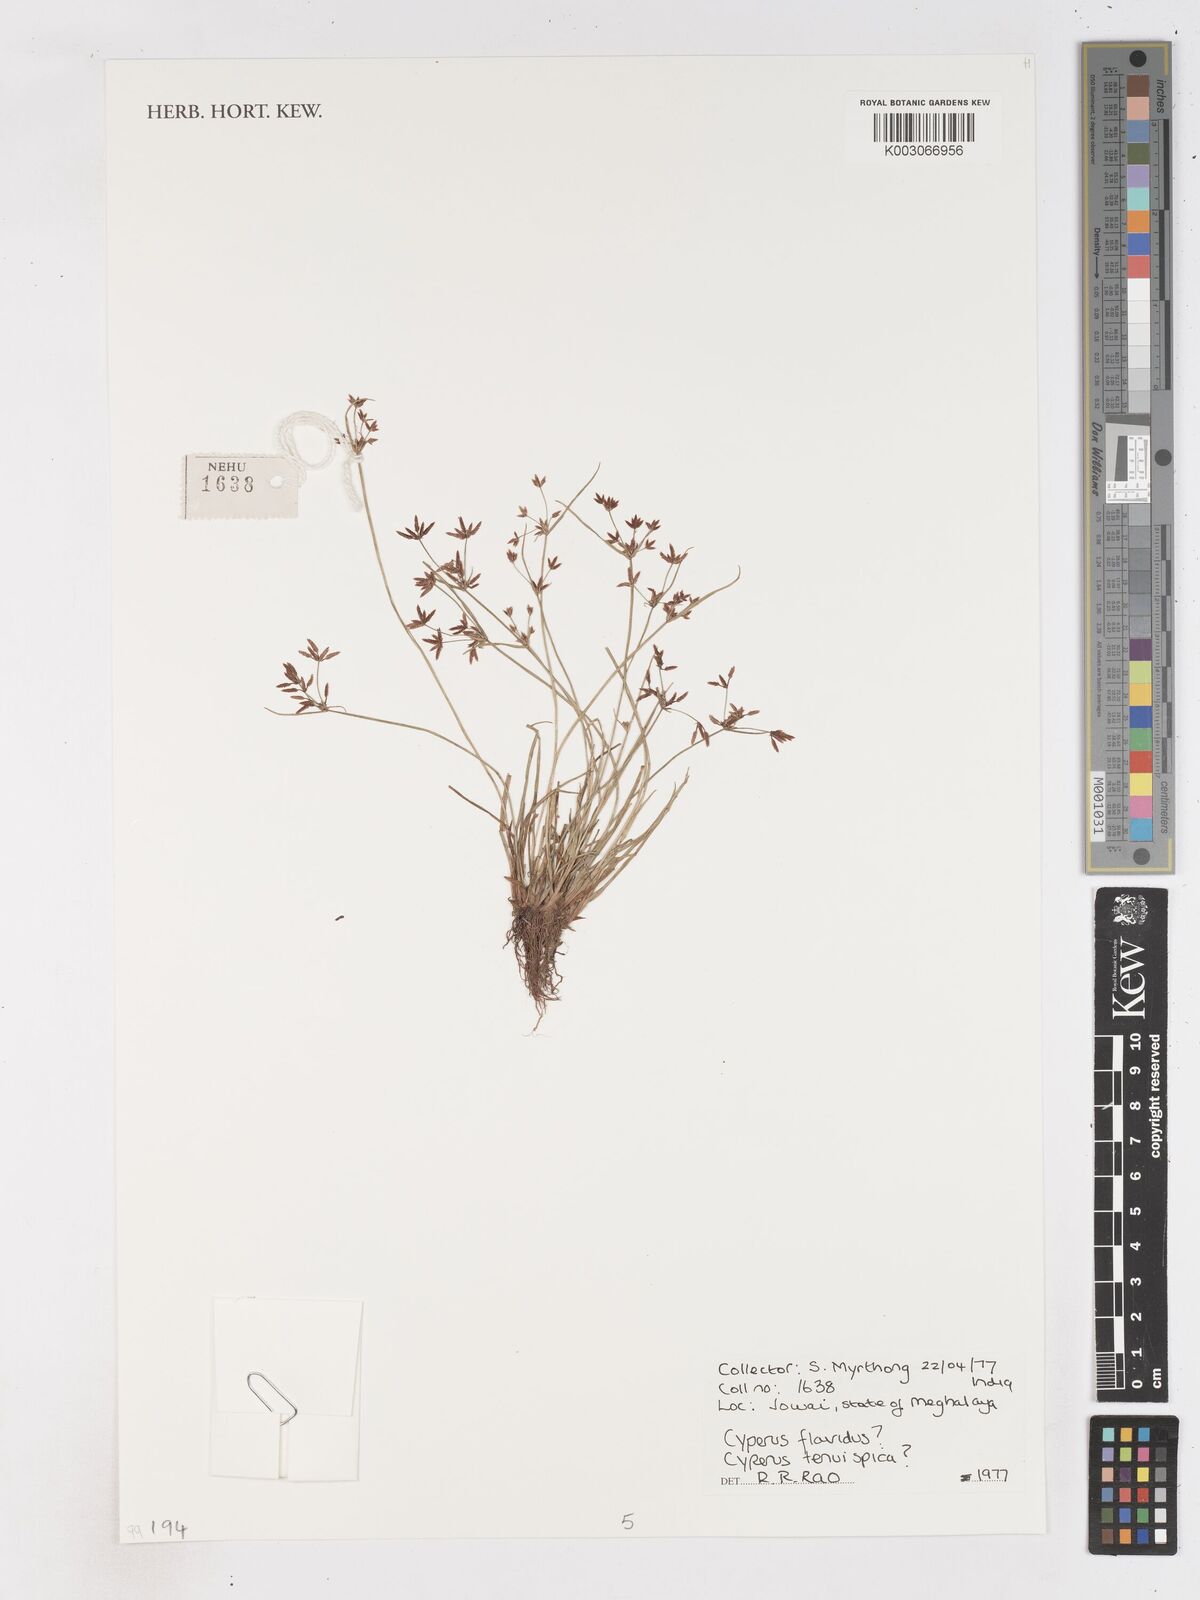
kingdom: Plantae
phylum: Tracheophyta
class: Liliopsida
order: Poales
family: Cyperaceae
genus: Cyperus
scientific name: Cyperus tenuispica
